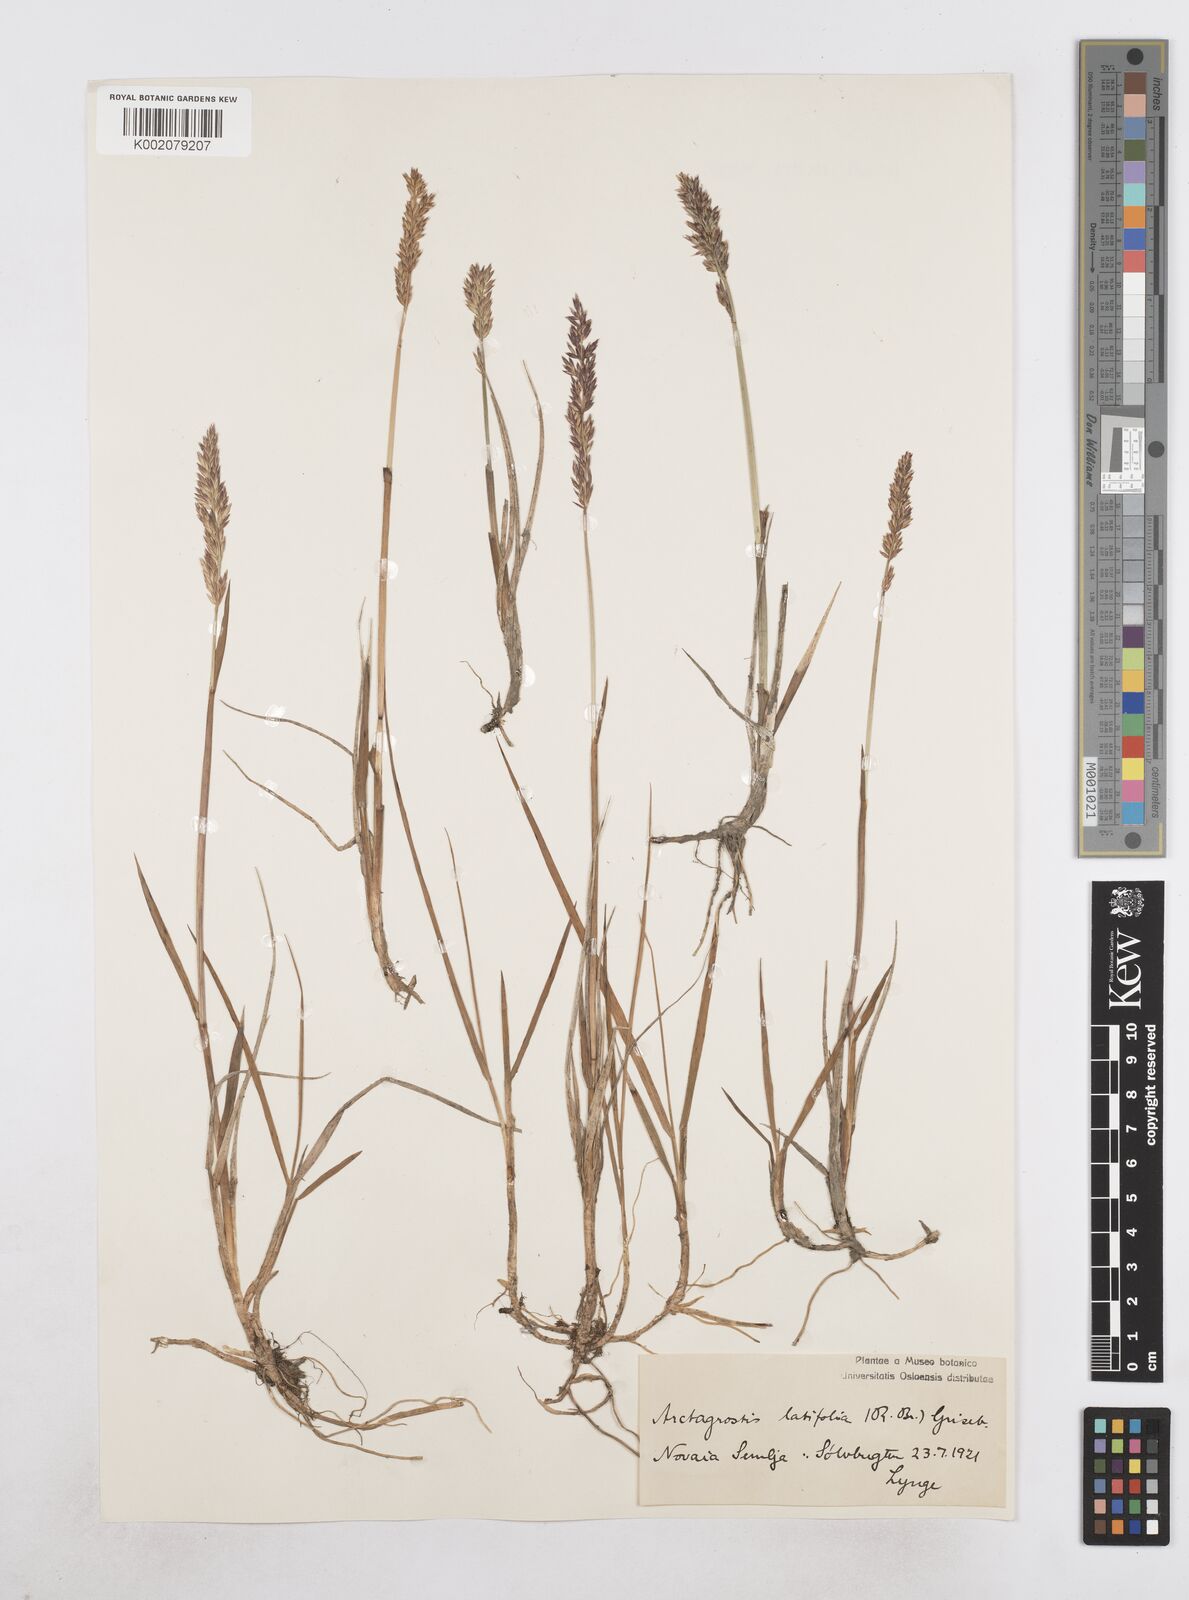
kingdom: Plantae
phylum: Tracheophyta
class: Liliopsida
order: Poales
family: Poaceae
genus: Arctagrostis
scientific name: Arctagrostis latifolia
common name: Arctic grass
